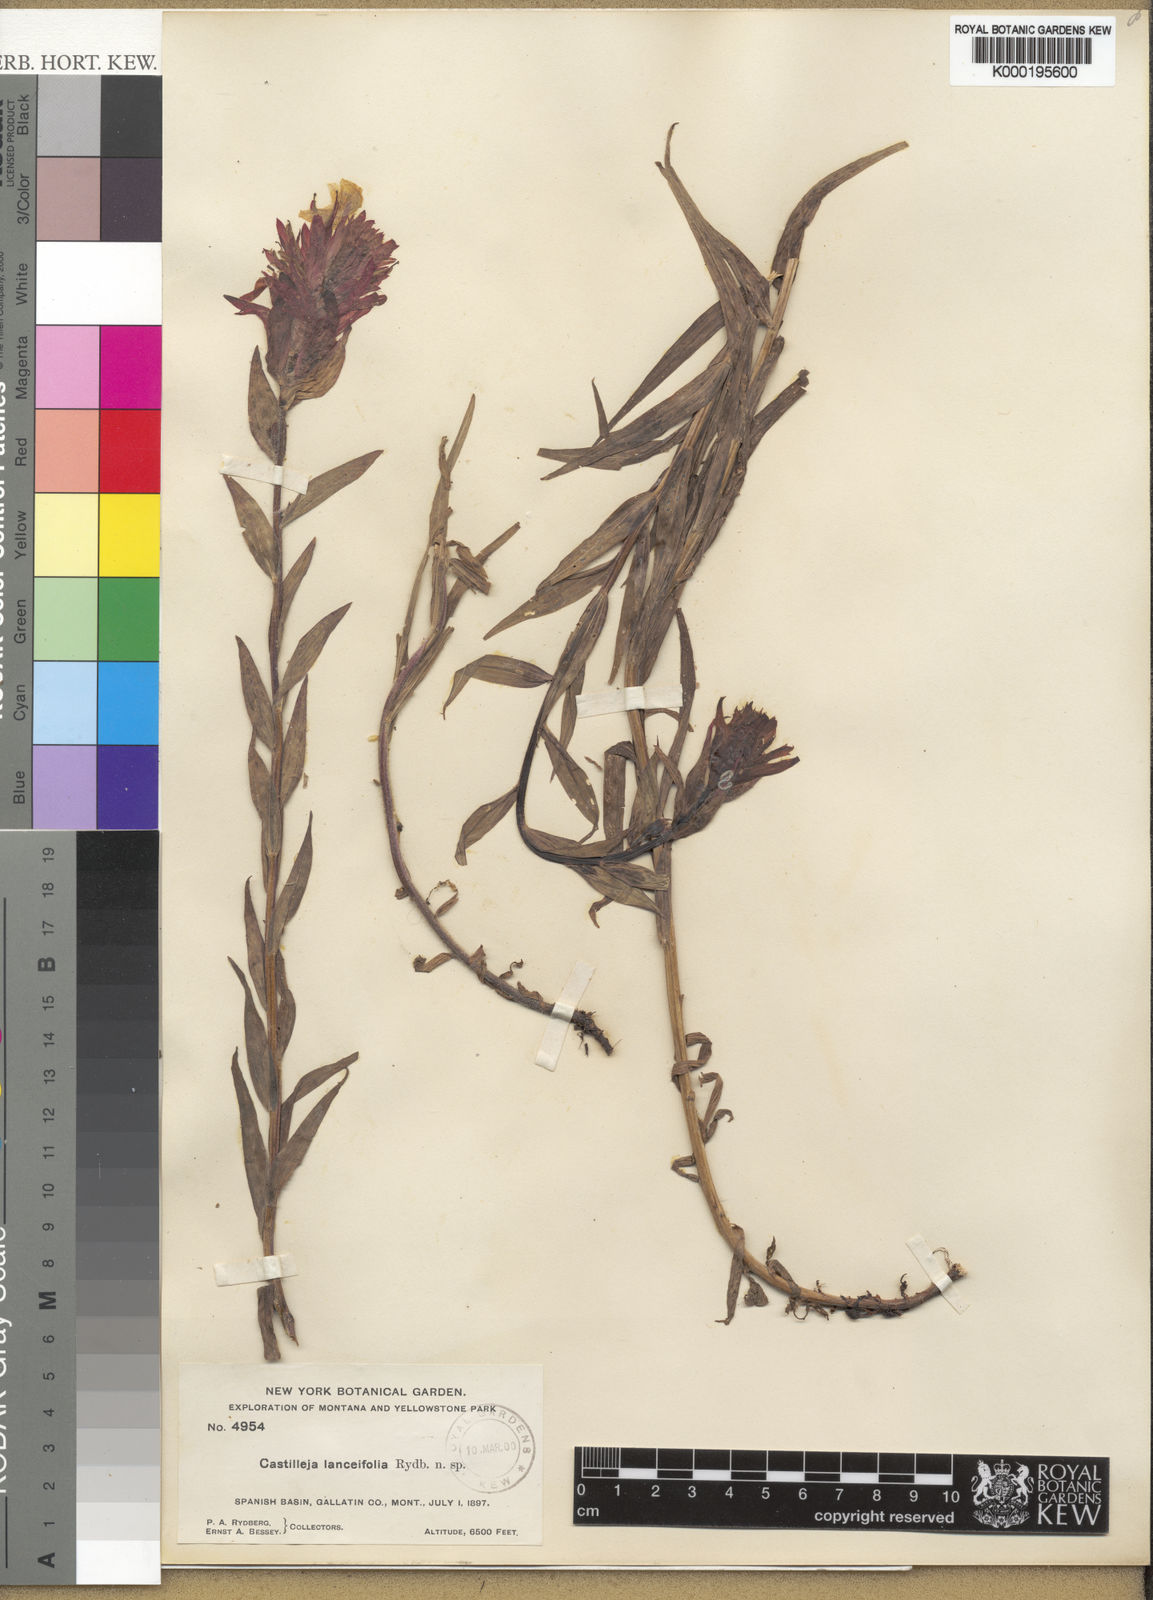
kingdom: Plantae
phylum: Tracheophyta
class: Magnoliopsida
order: Lamiales
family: Orobanchaceae
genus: Castilleja
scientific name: Castilleja
